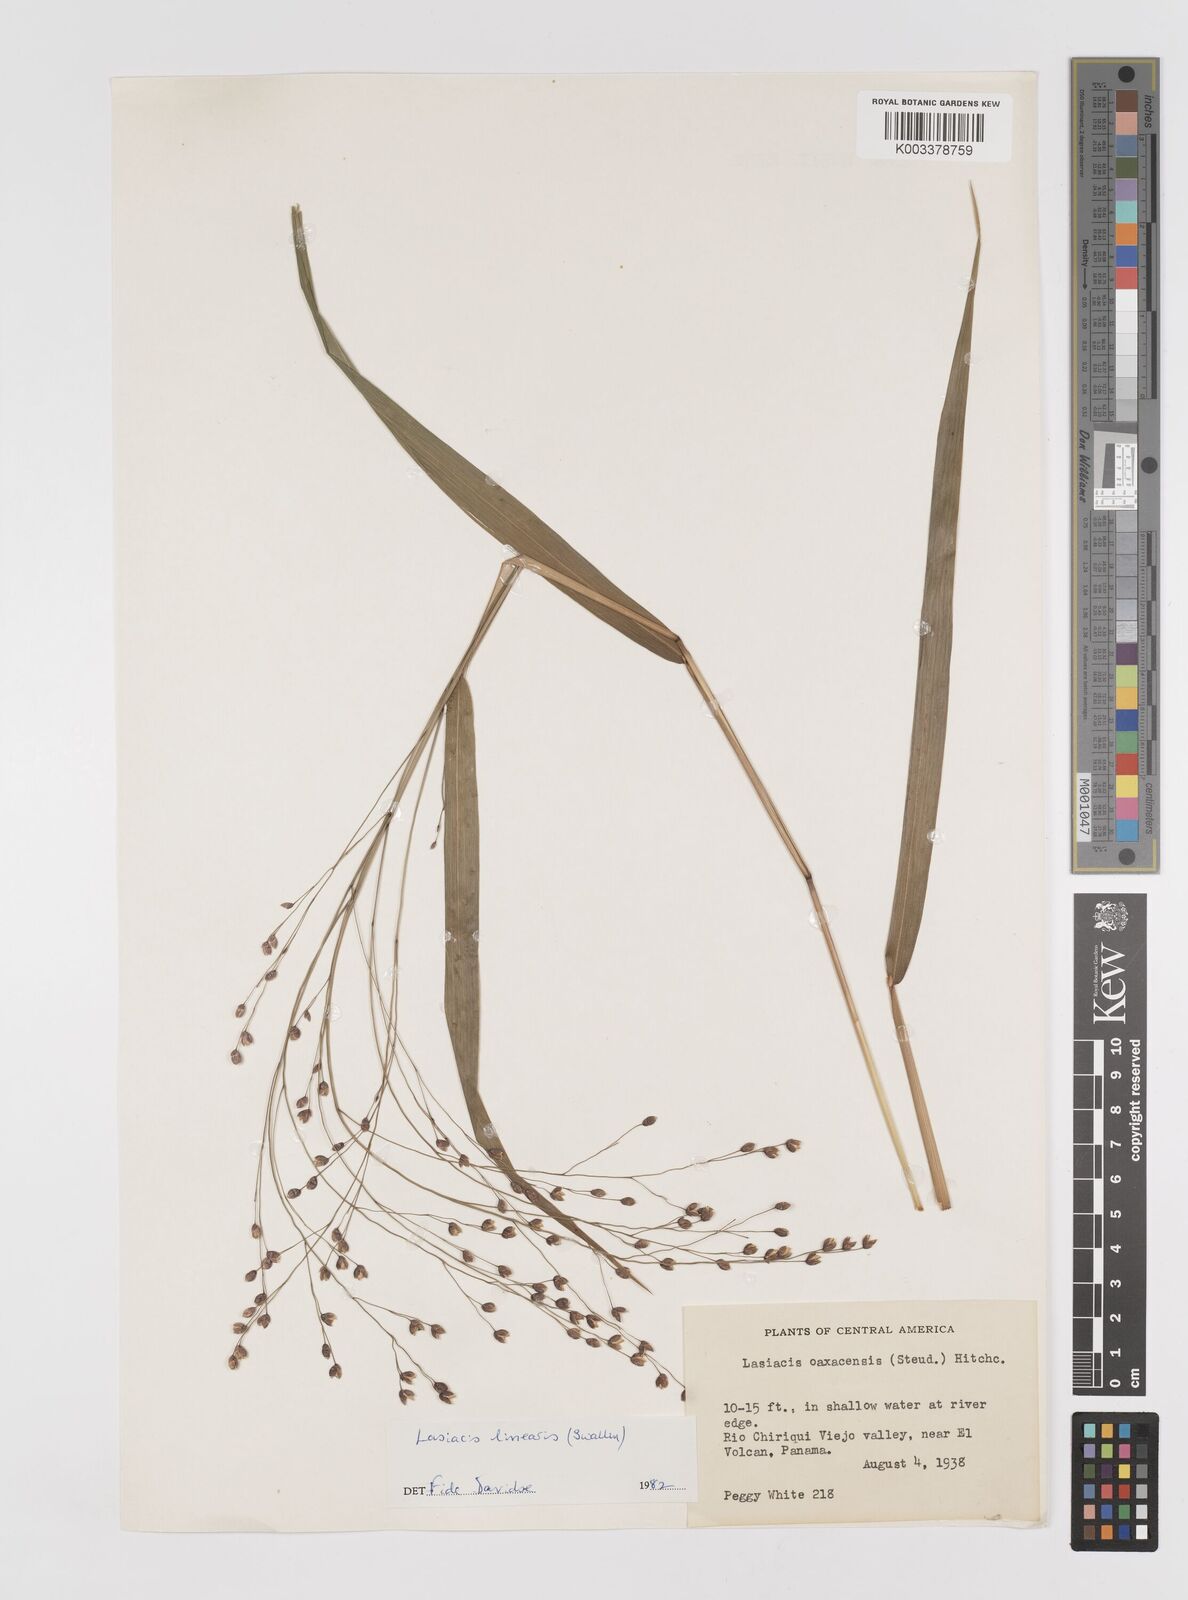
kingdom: Plantae
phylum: Tracheophyta
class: Liliopsida
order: Poales
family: Poaceae
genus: Lasiacis
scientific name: Lasiacis linearis
